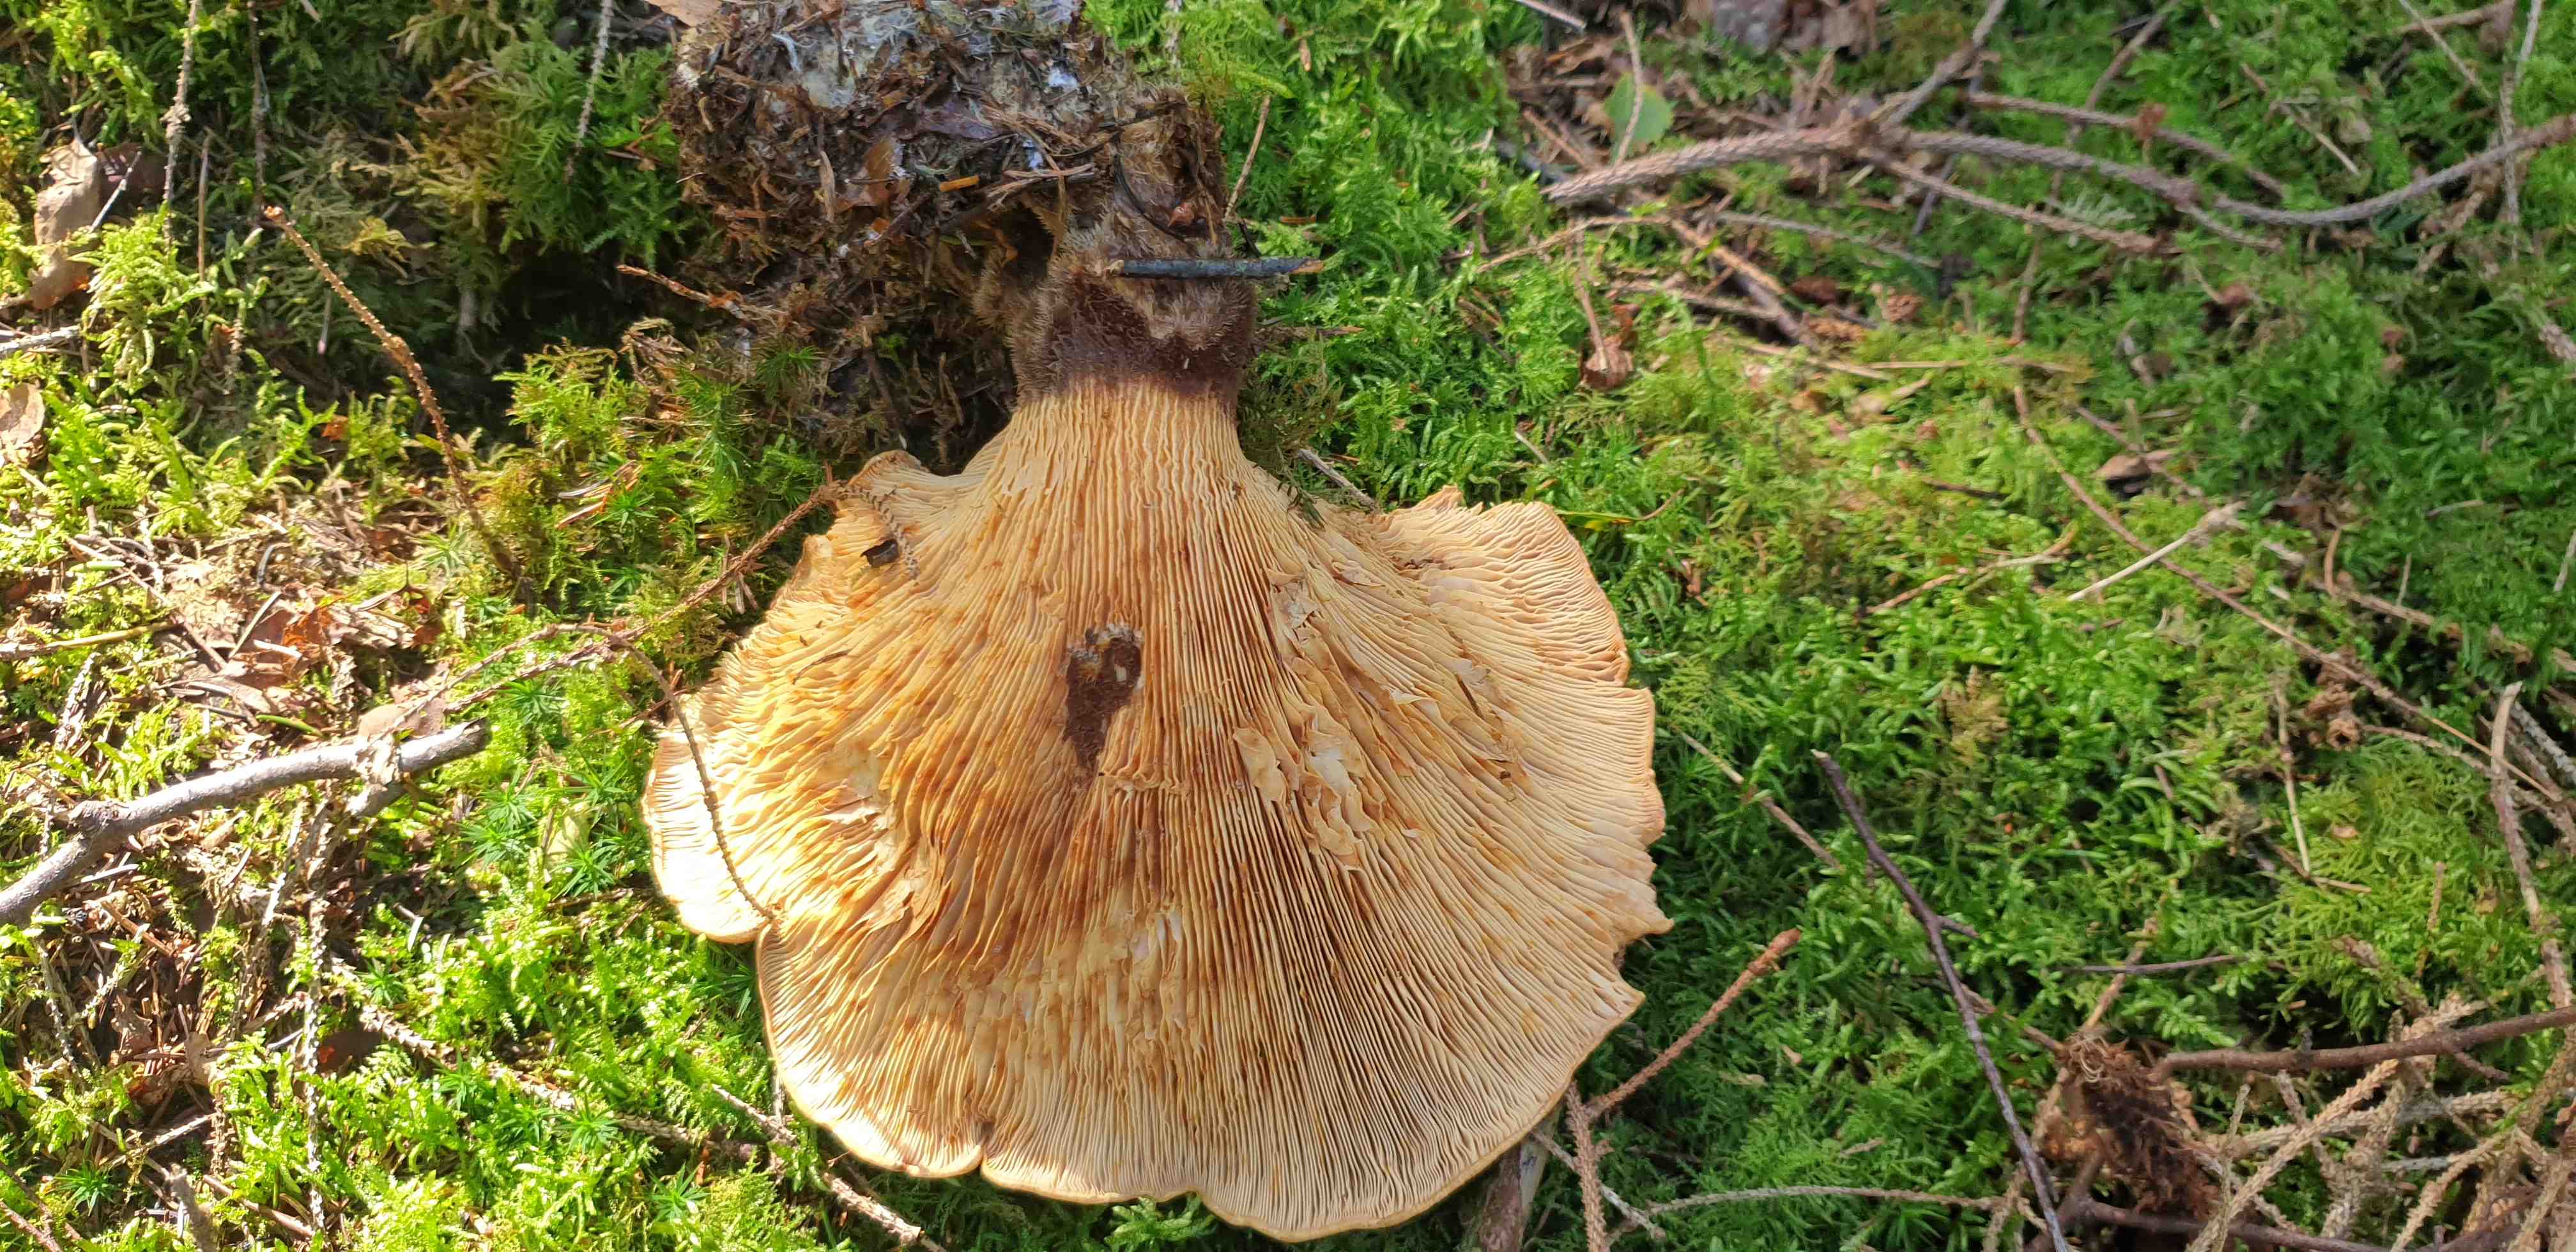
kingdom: Fungi
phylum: Basidiomycota
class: Agaricomycetes
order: Boletales
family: Tapinellaceae
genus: Tapinella
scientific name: Tapinella atrotomentosa
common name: sortfiltet viftesvamp
